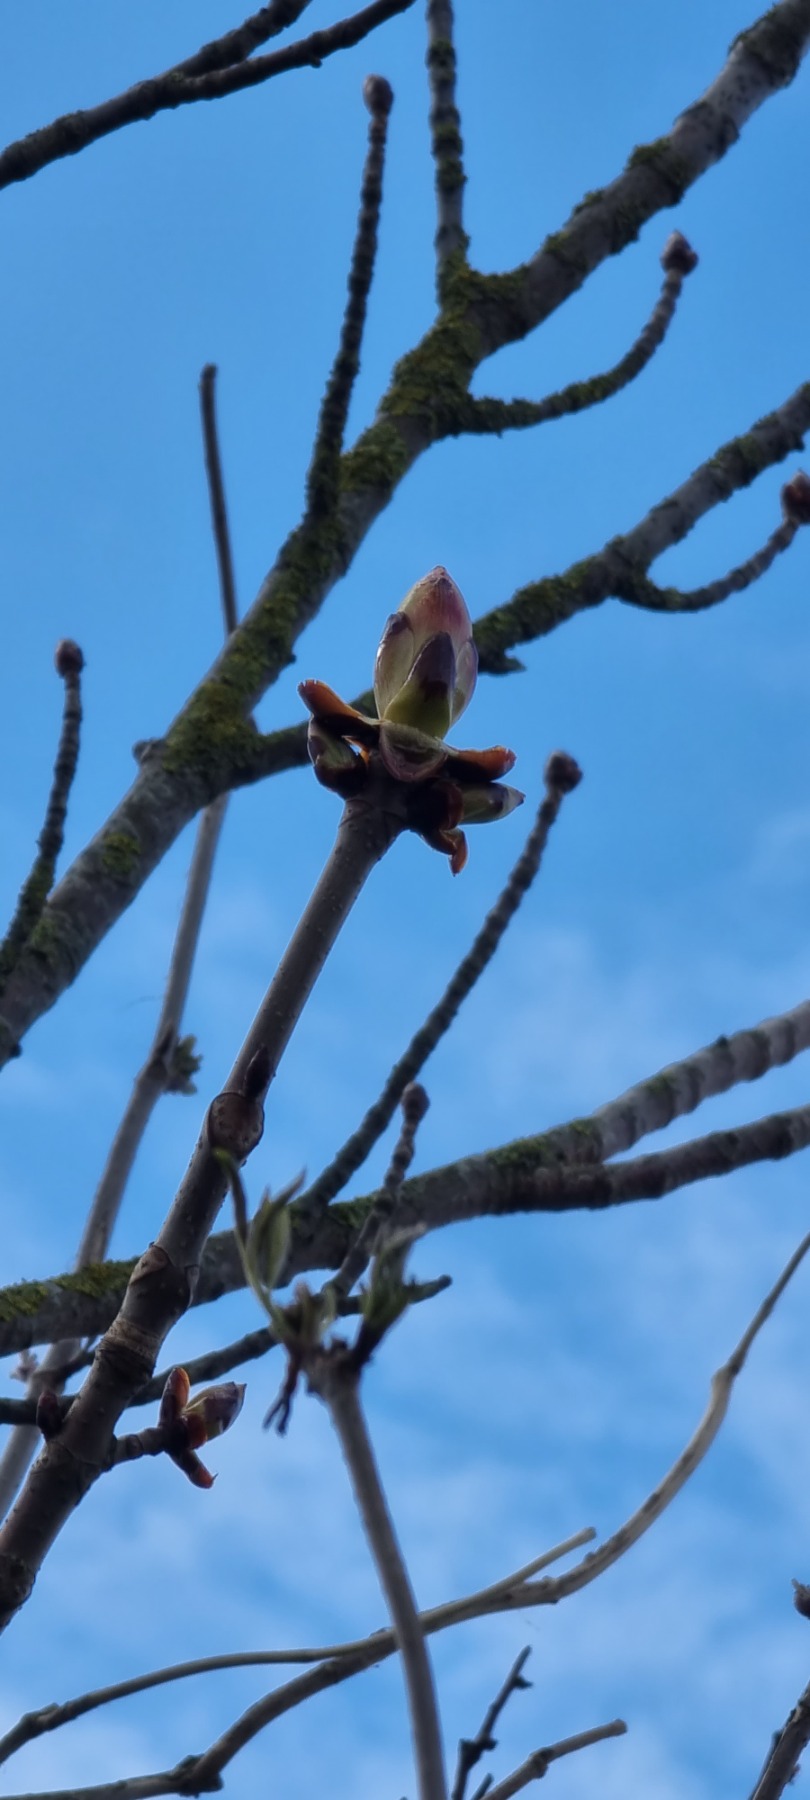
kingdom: Plantae
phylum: Tracheophyta
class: Magnoliopsida
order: Sapindales
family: Sapindaceae
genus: Aesculus
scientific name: Aesculus hippocastanum
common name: Hestekastanie
